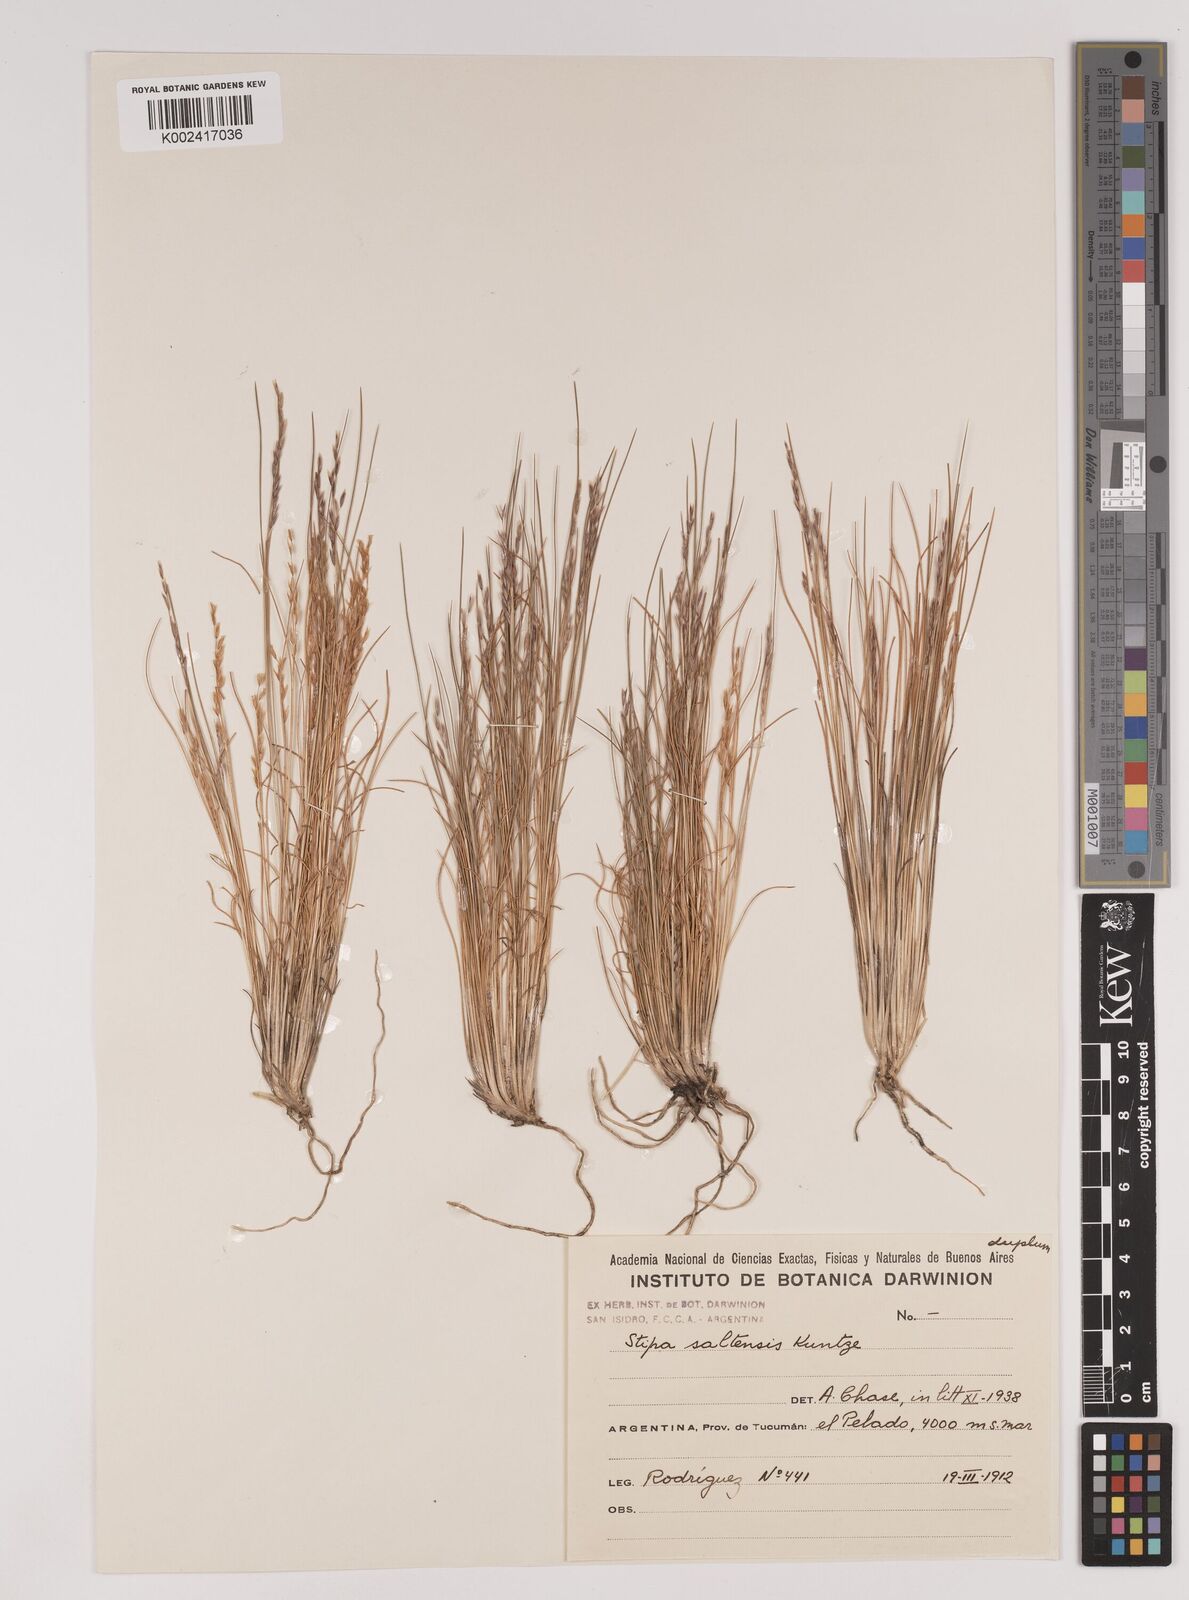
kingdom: Plantae
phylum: Tracheophyta
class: Liliopsida
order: Poales
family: Poaceae
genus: Nassella
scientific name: Nassella mucronata
